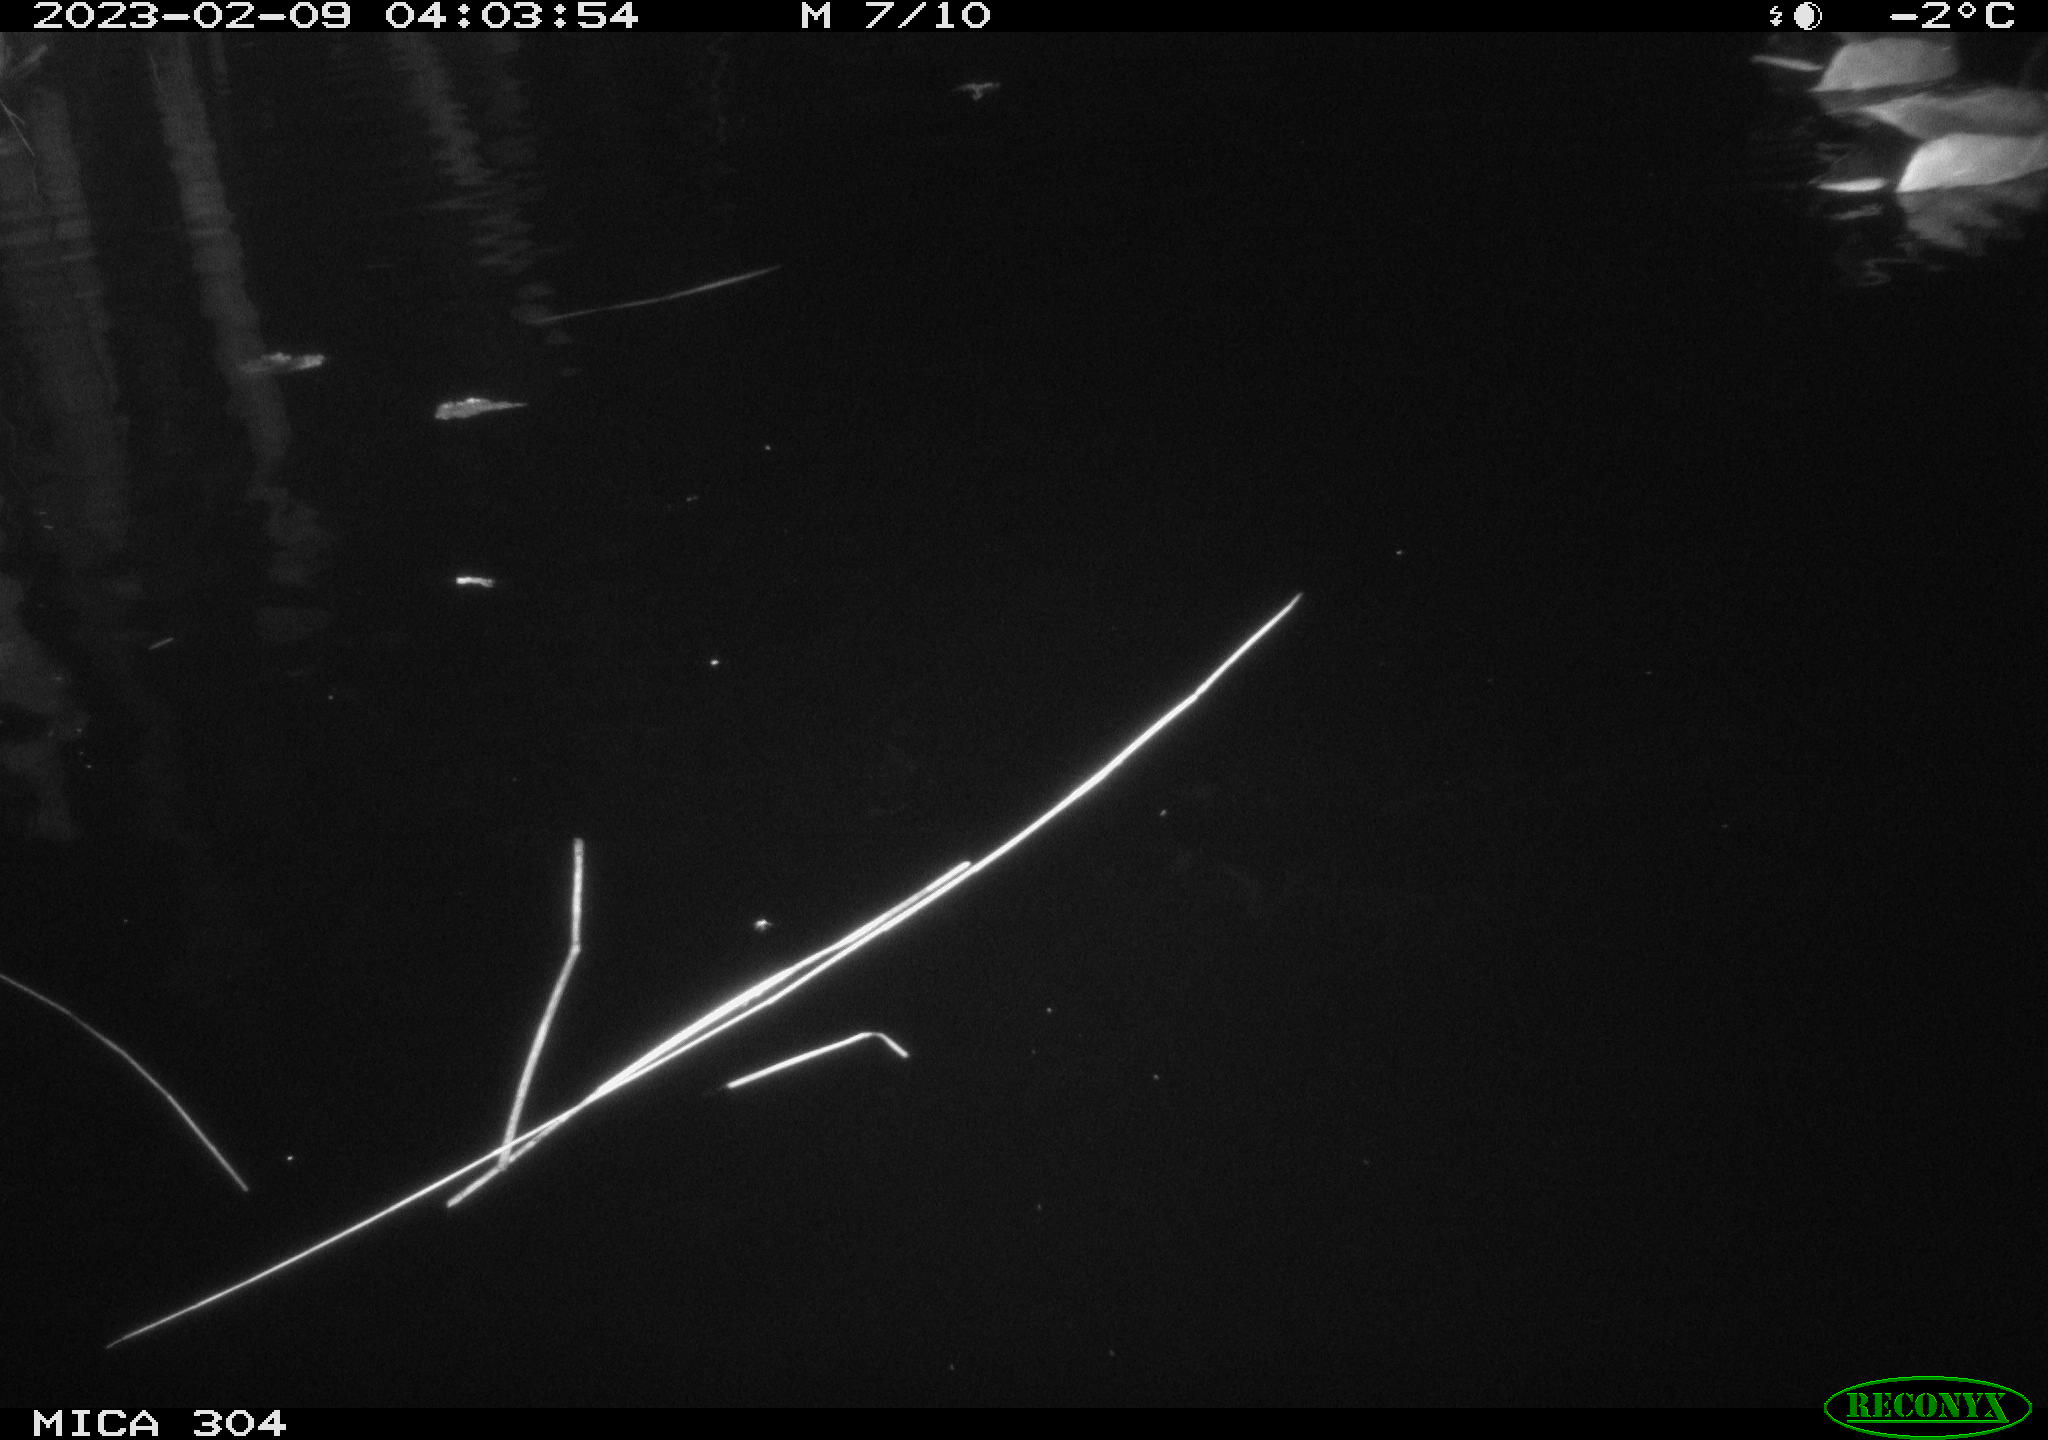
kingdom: Animalia
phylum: Chordata
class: Aves
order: Anseriformes
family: Anatidae
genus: Anas
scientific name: Anas
